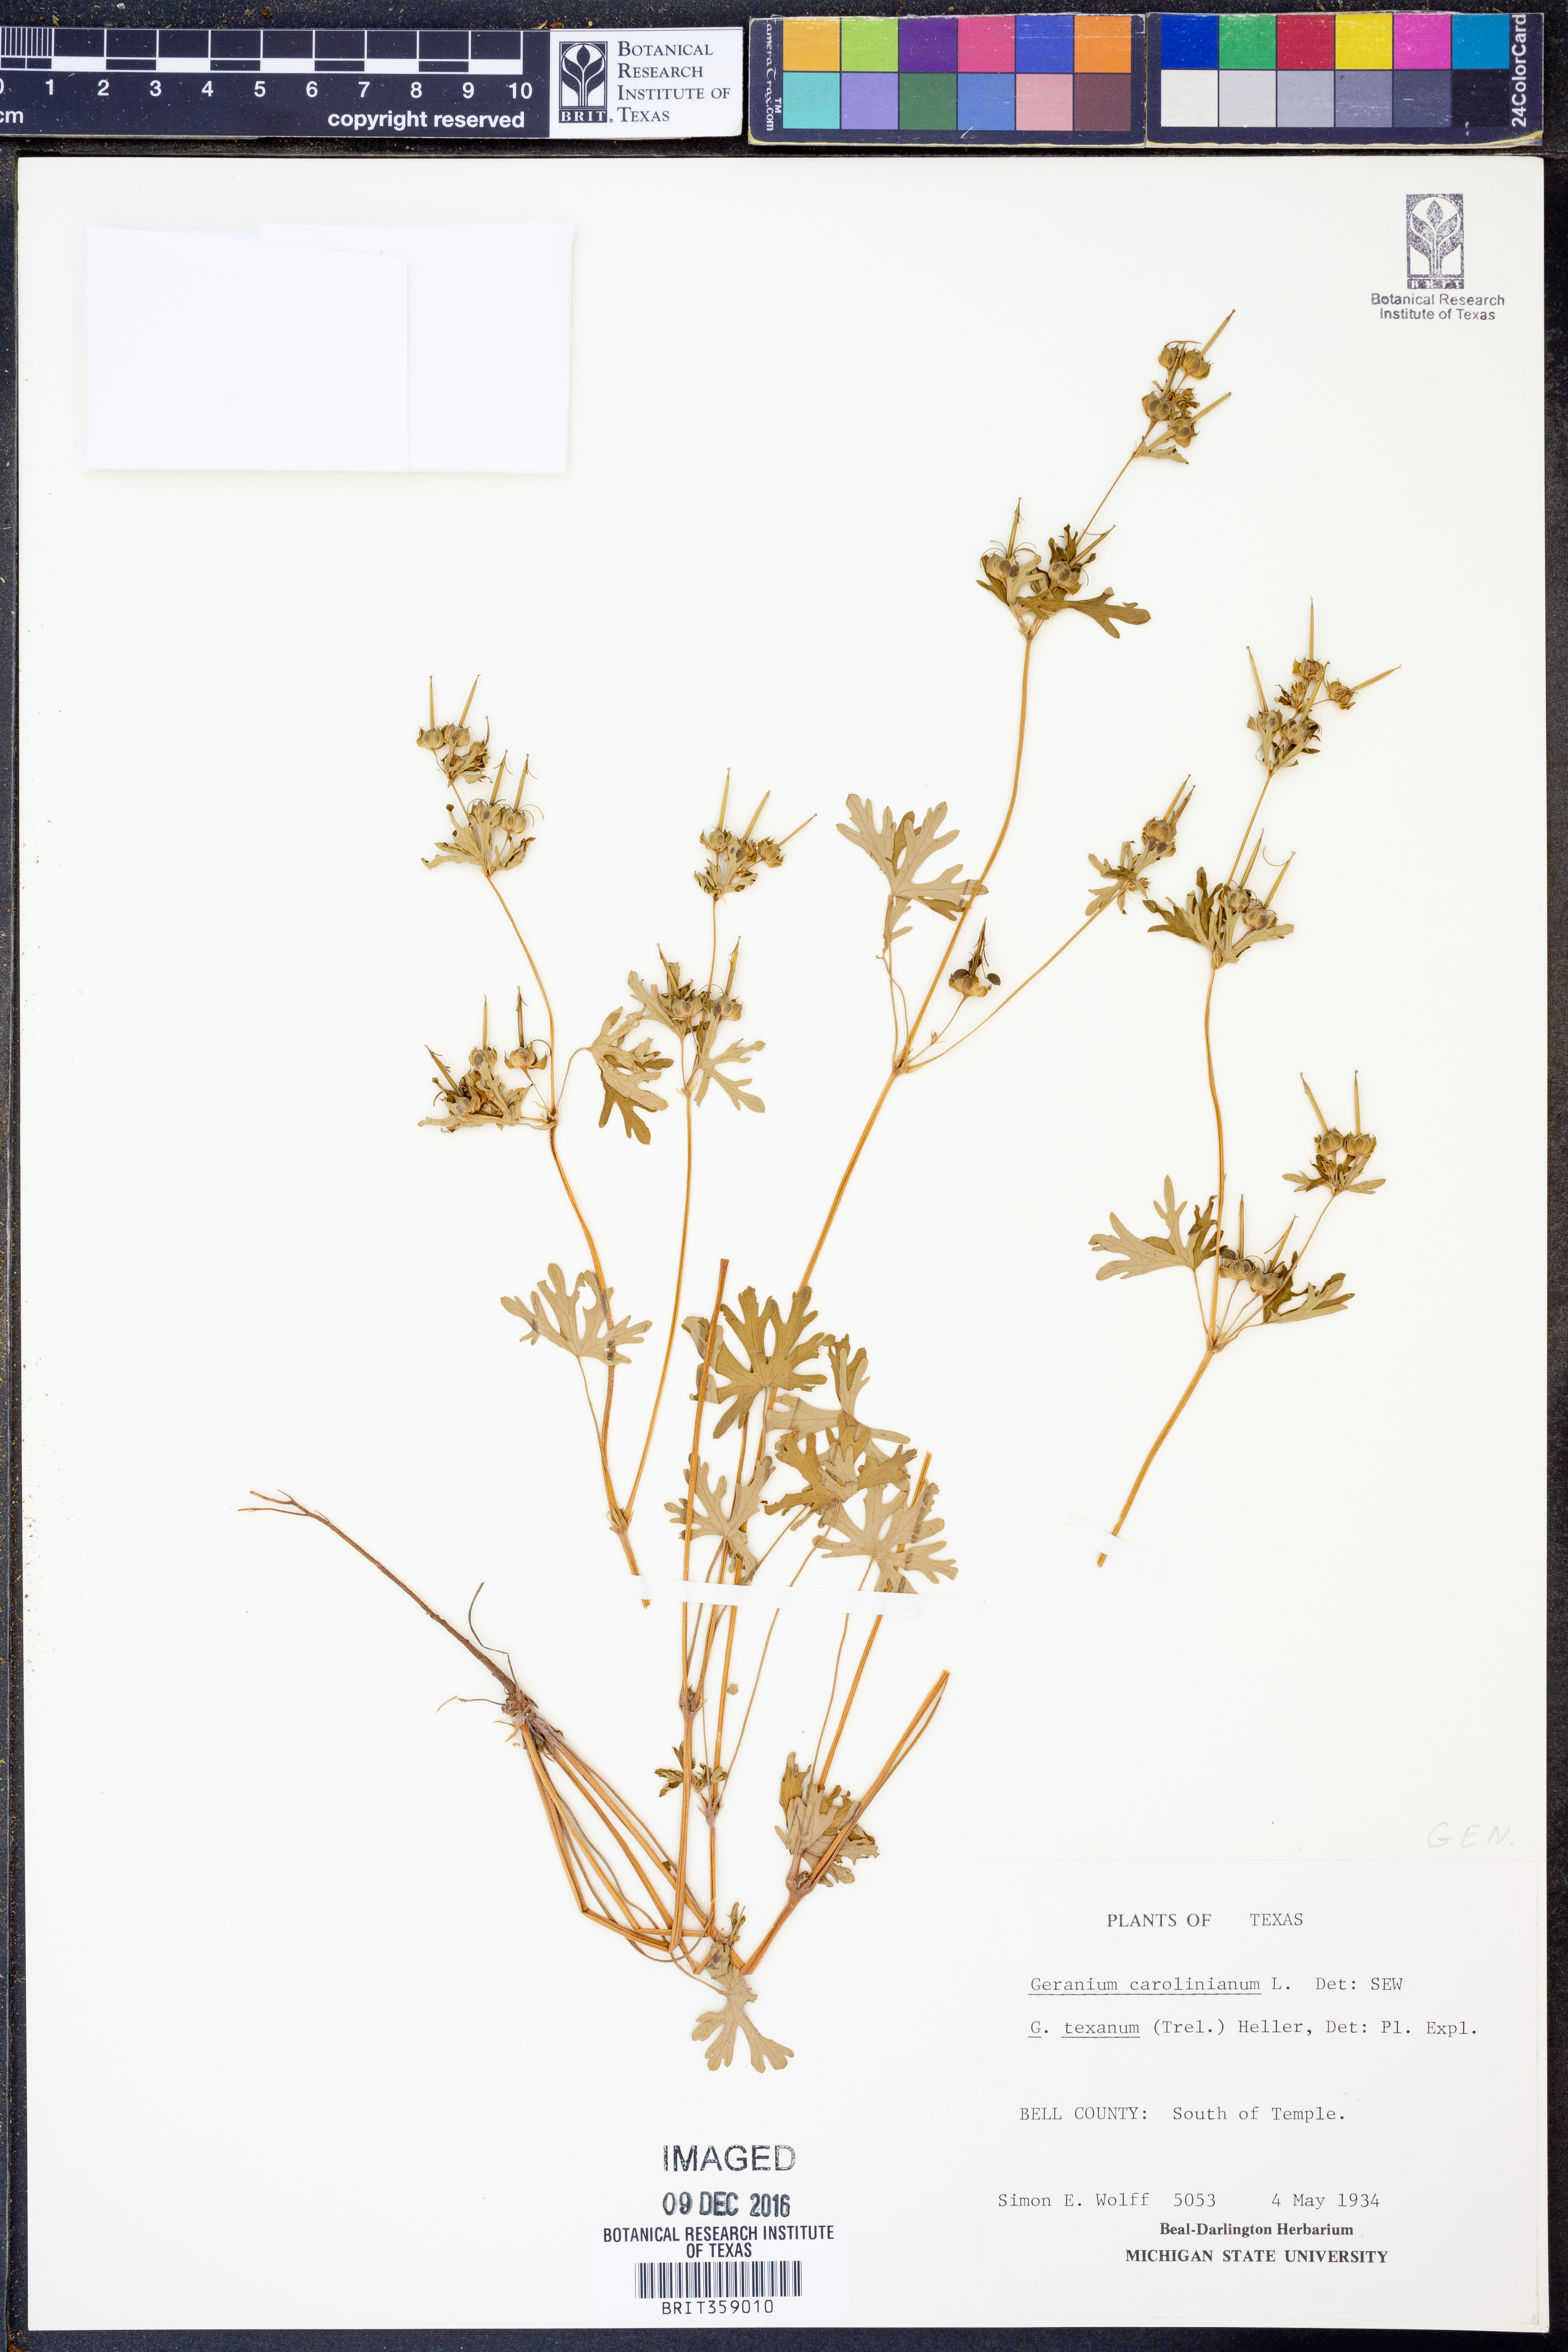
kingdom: Plantae
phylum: Tracheophyta
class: Magnoliopsida
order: Geraniales
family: Geraniaceae
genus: Geranium
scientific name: Geranium carolinianum
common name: Carolina crane's-bill
